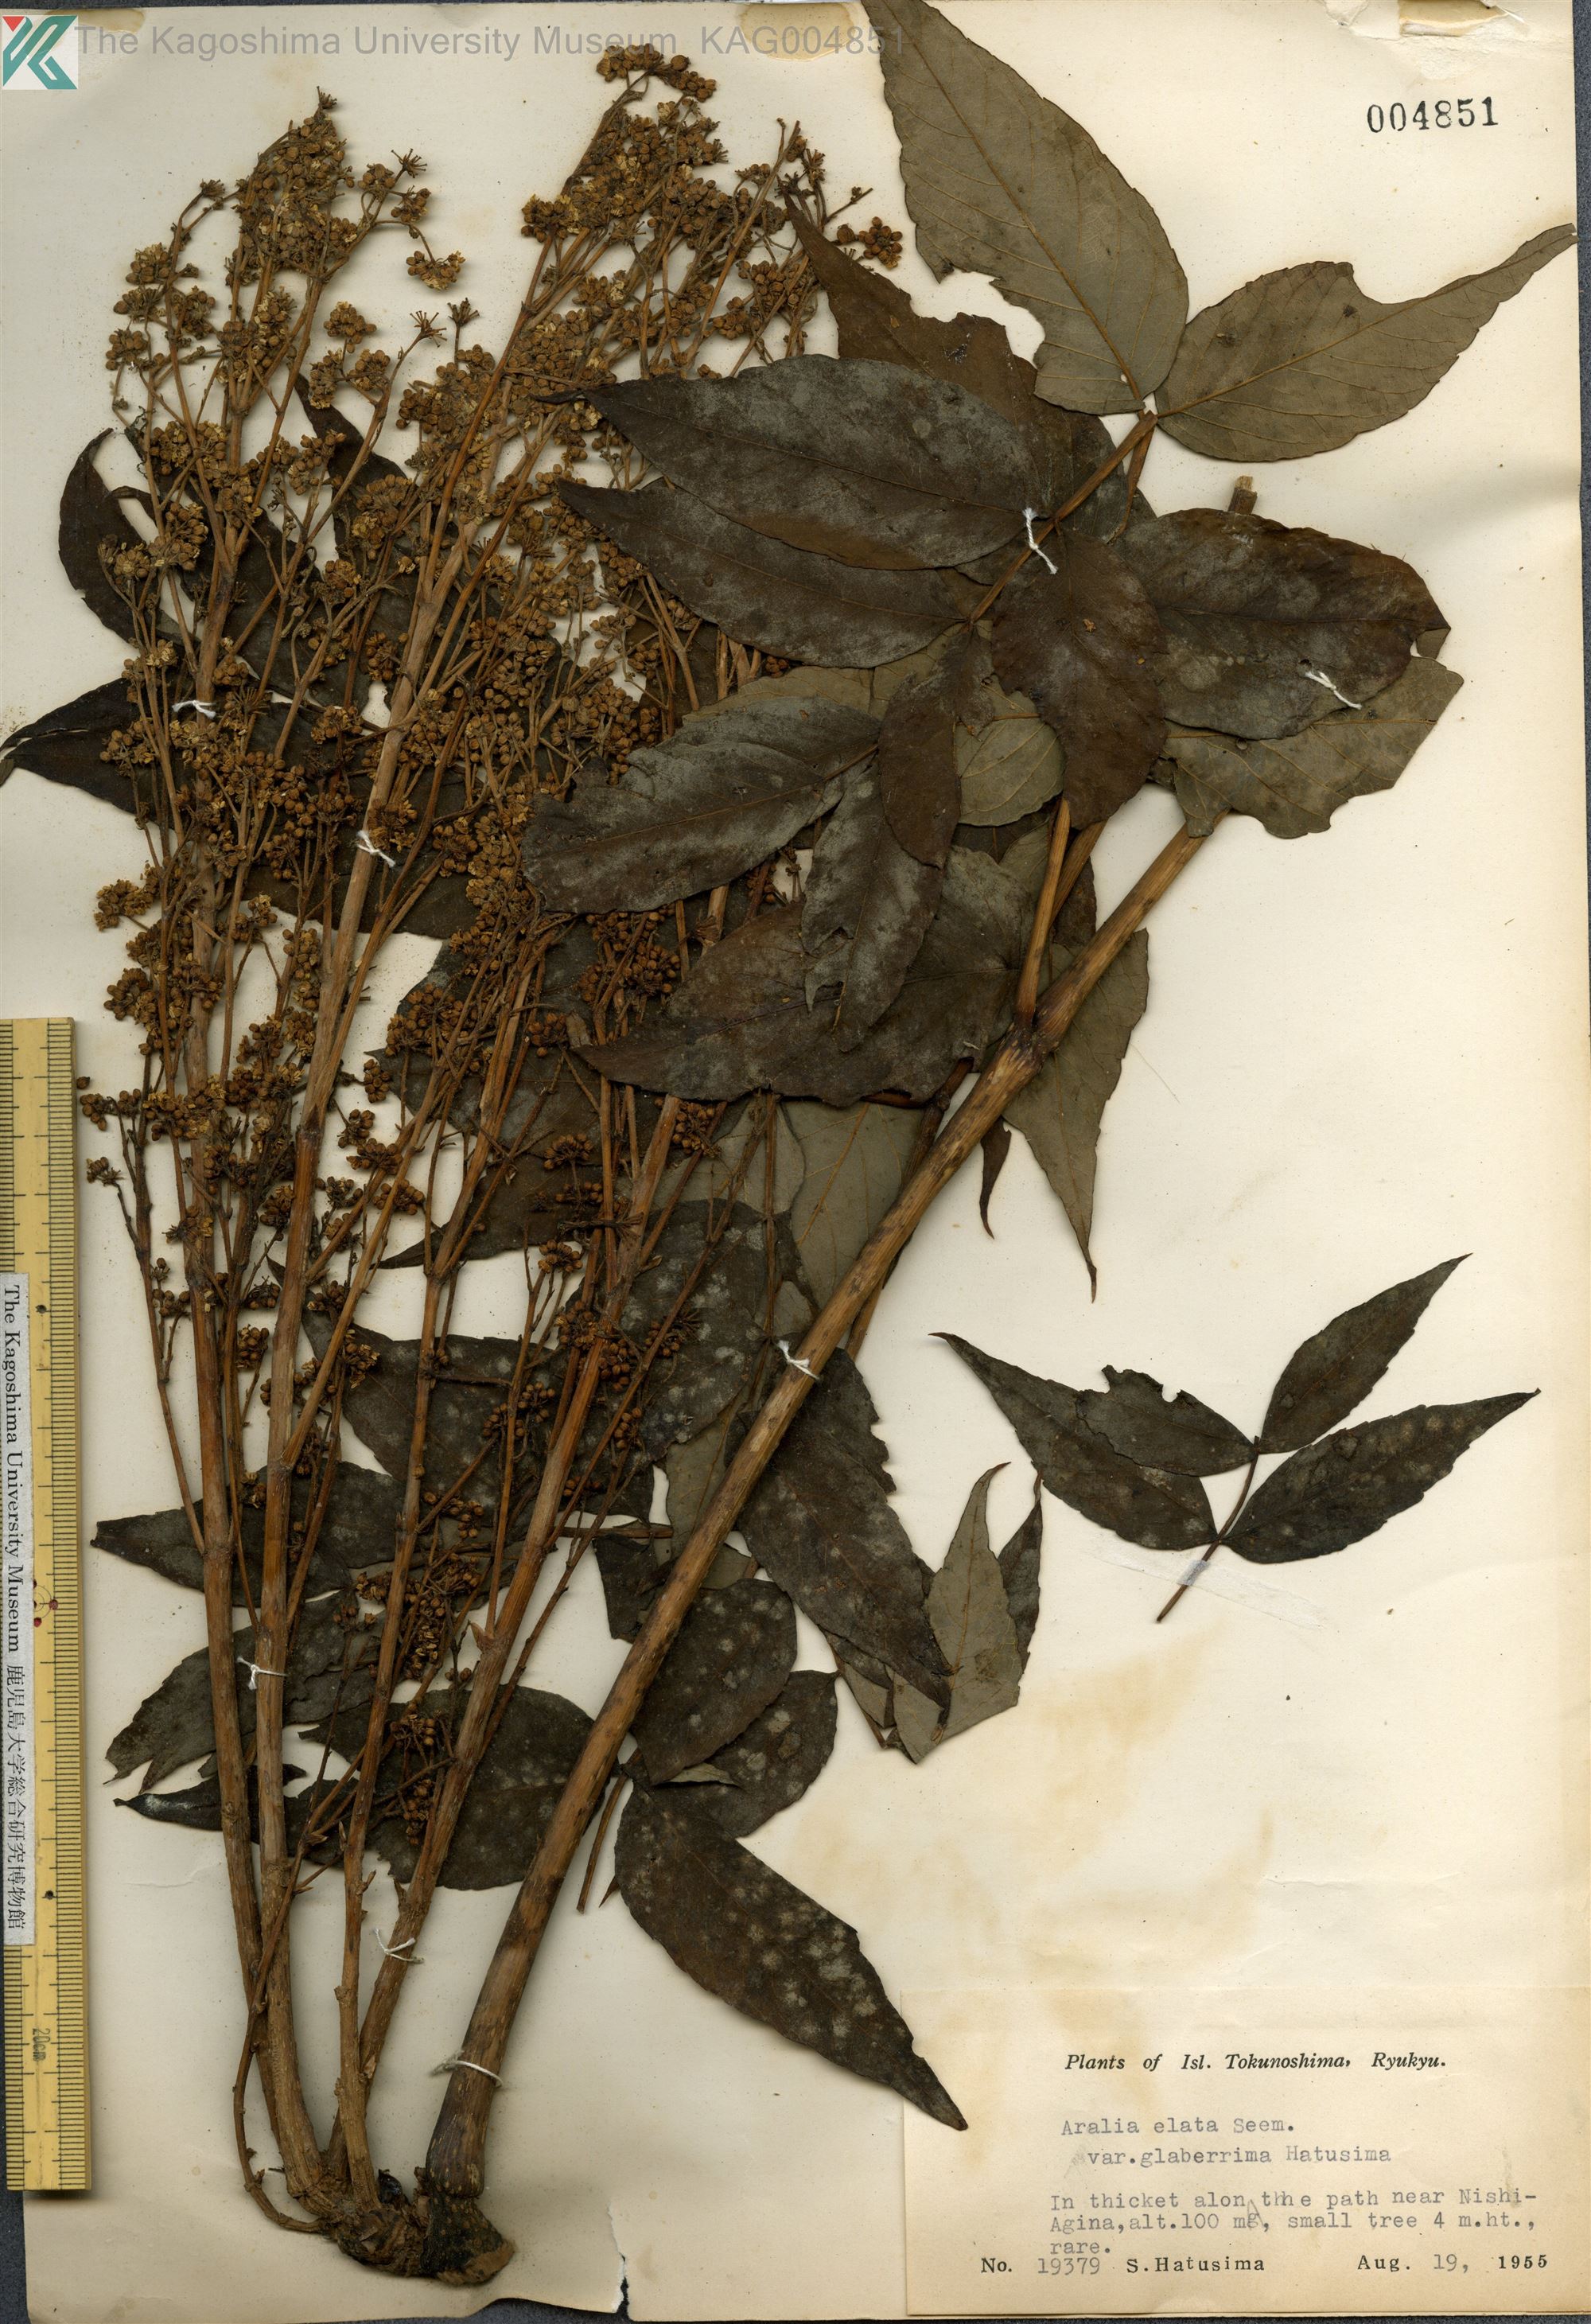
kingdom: Plantae
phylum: Tracheophyta
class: Magnoliopsida
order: Apiales
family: Araliaceae
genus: Aralia
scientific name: Aralia elata
